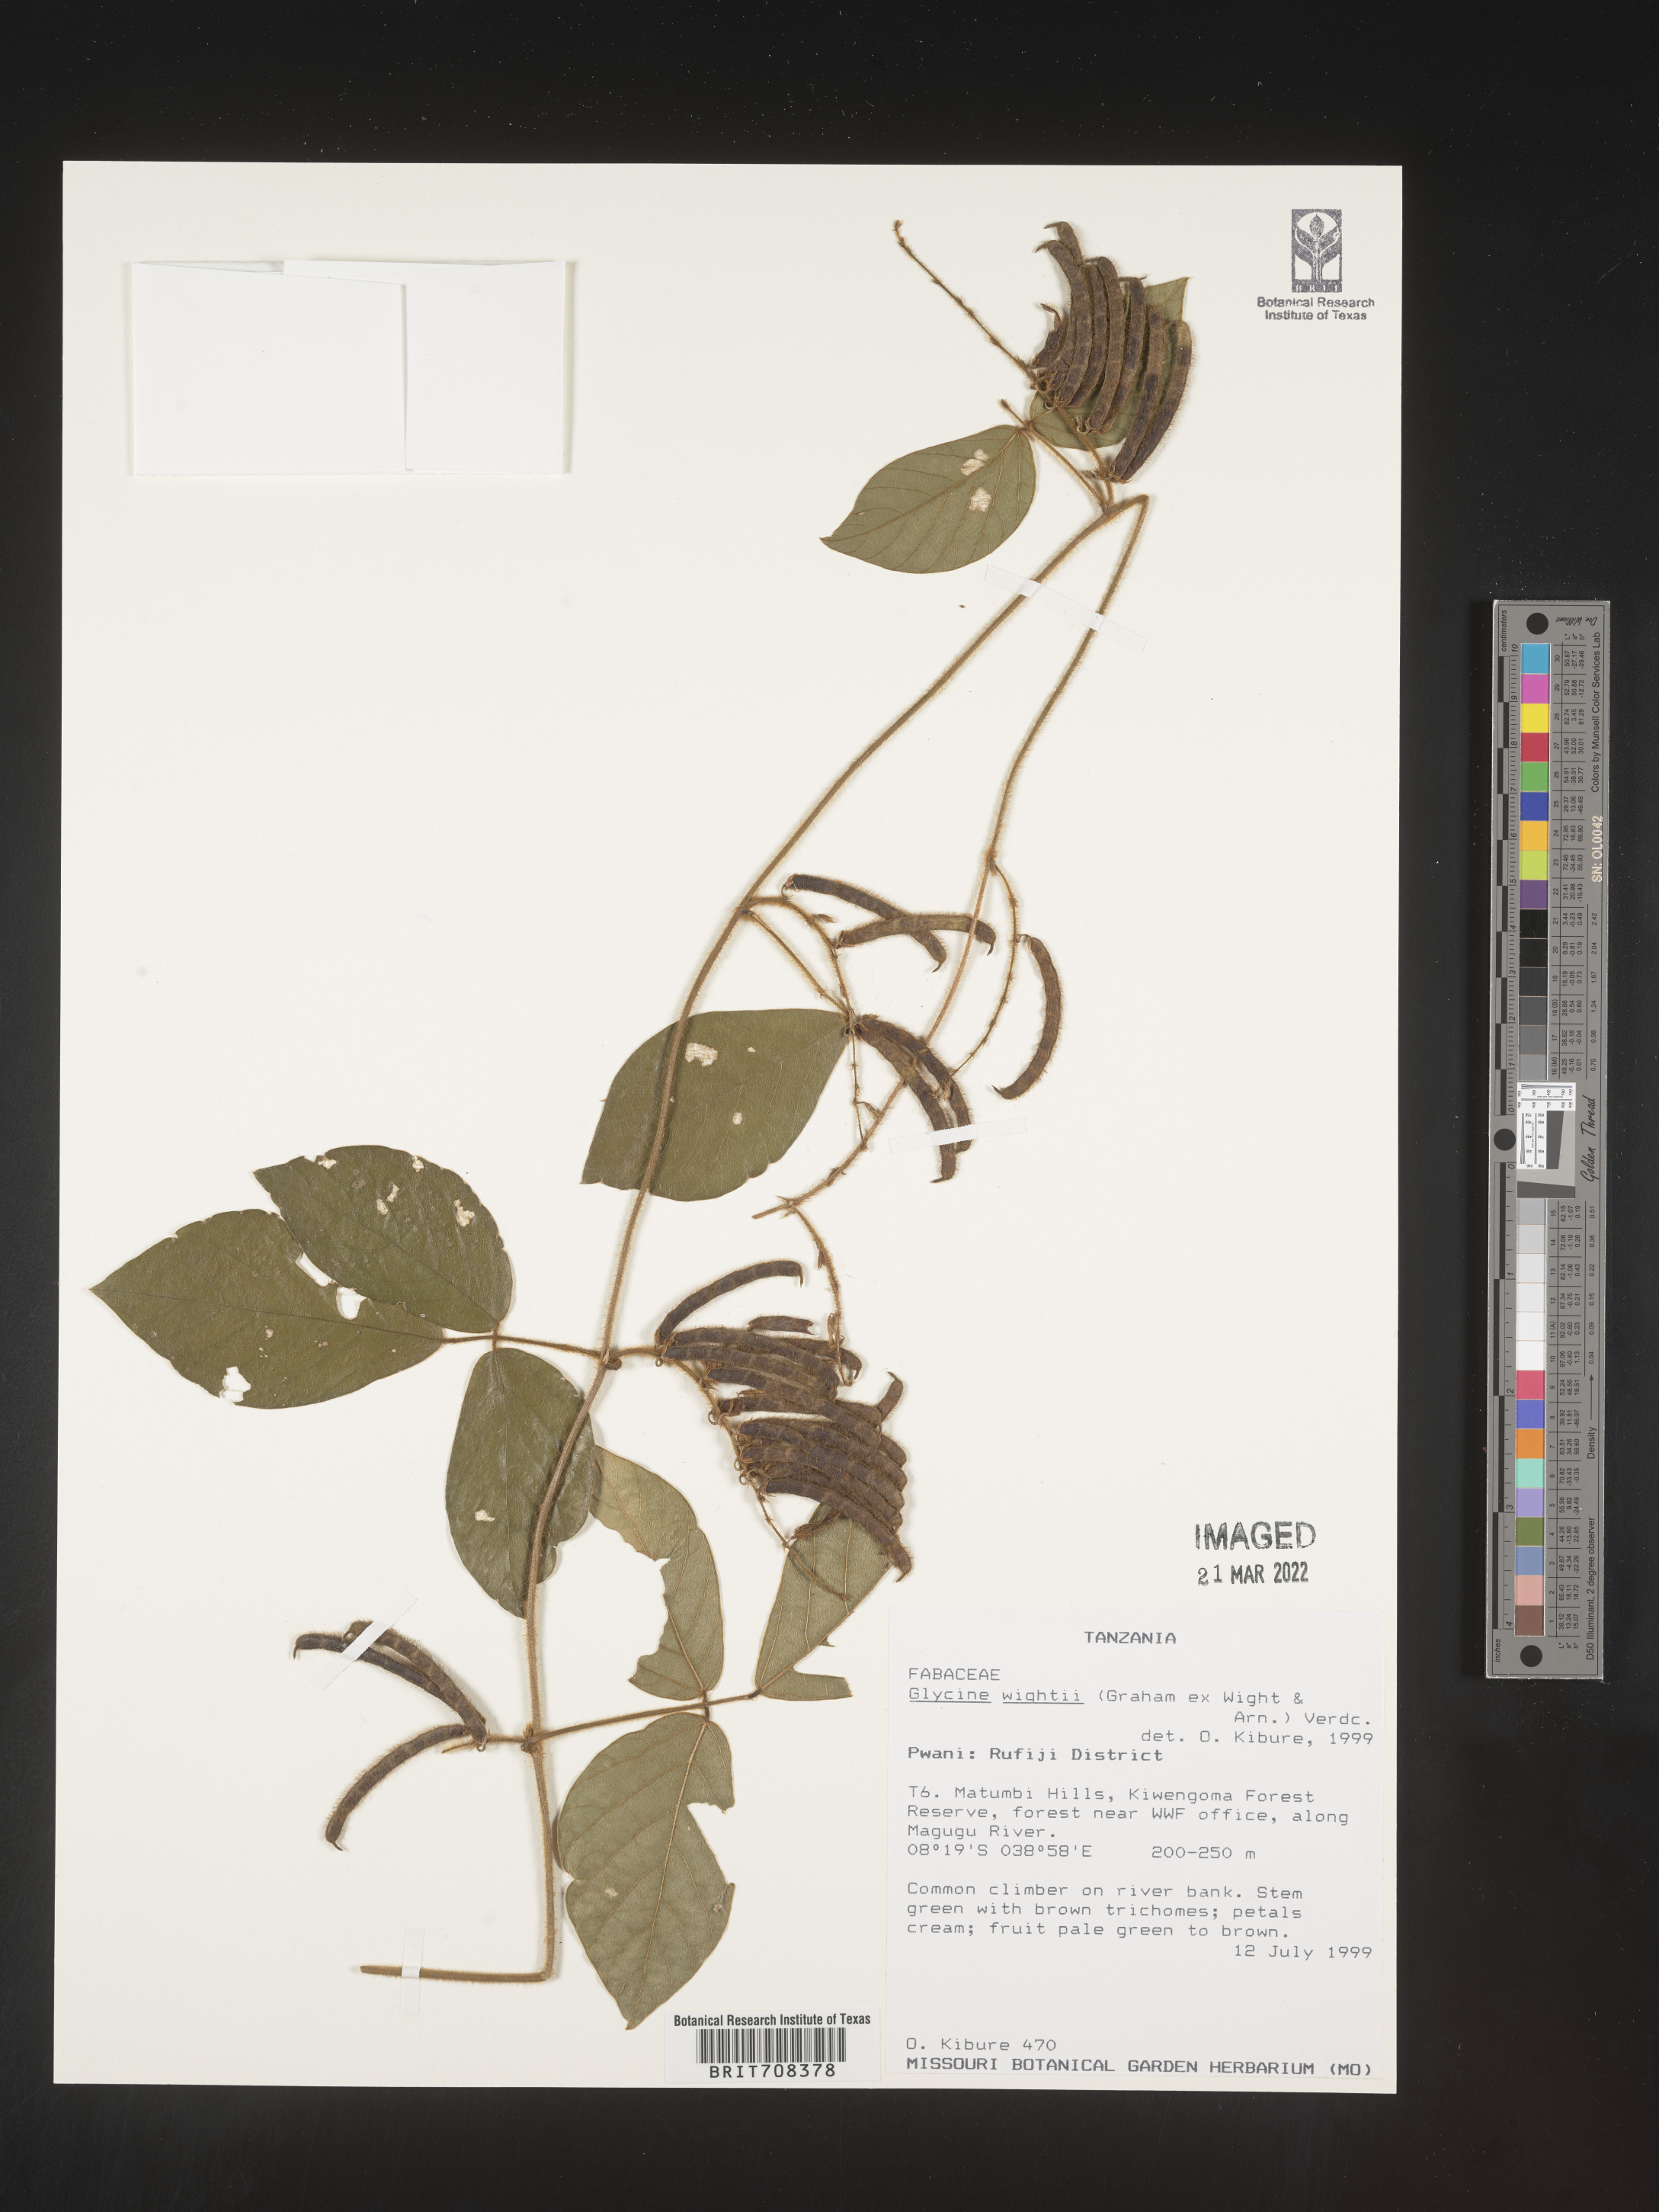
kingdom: Plantae
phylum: Tracheophyta
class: Magnoliopsida
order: Fabales
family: Fabaceae
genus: Glycine
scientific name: Glycine
